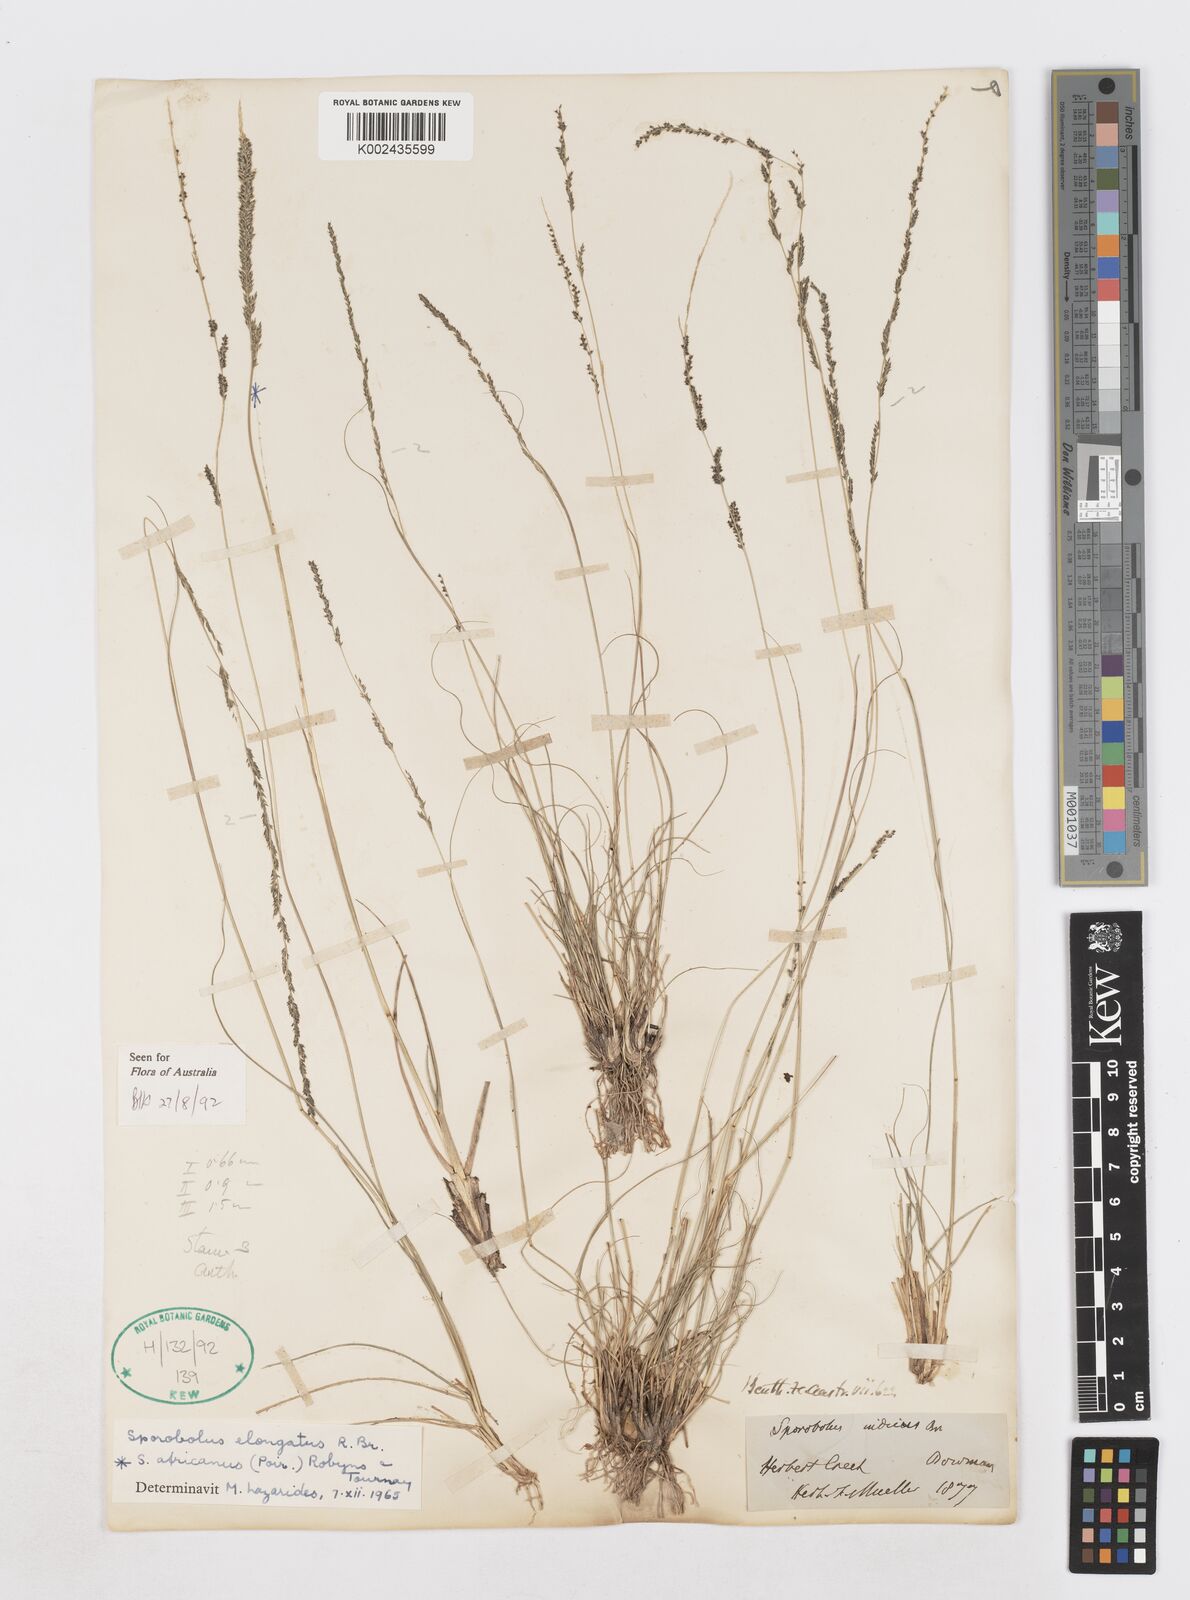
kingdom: Plantae
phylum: Tracheophyta
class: Liliopsida
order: Poales
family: Poaceae
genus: Sporobolus
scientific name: Sporobolus elongatus
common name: Rat tail grass
